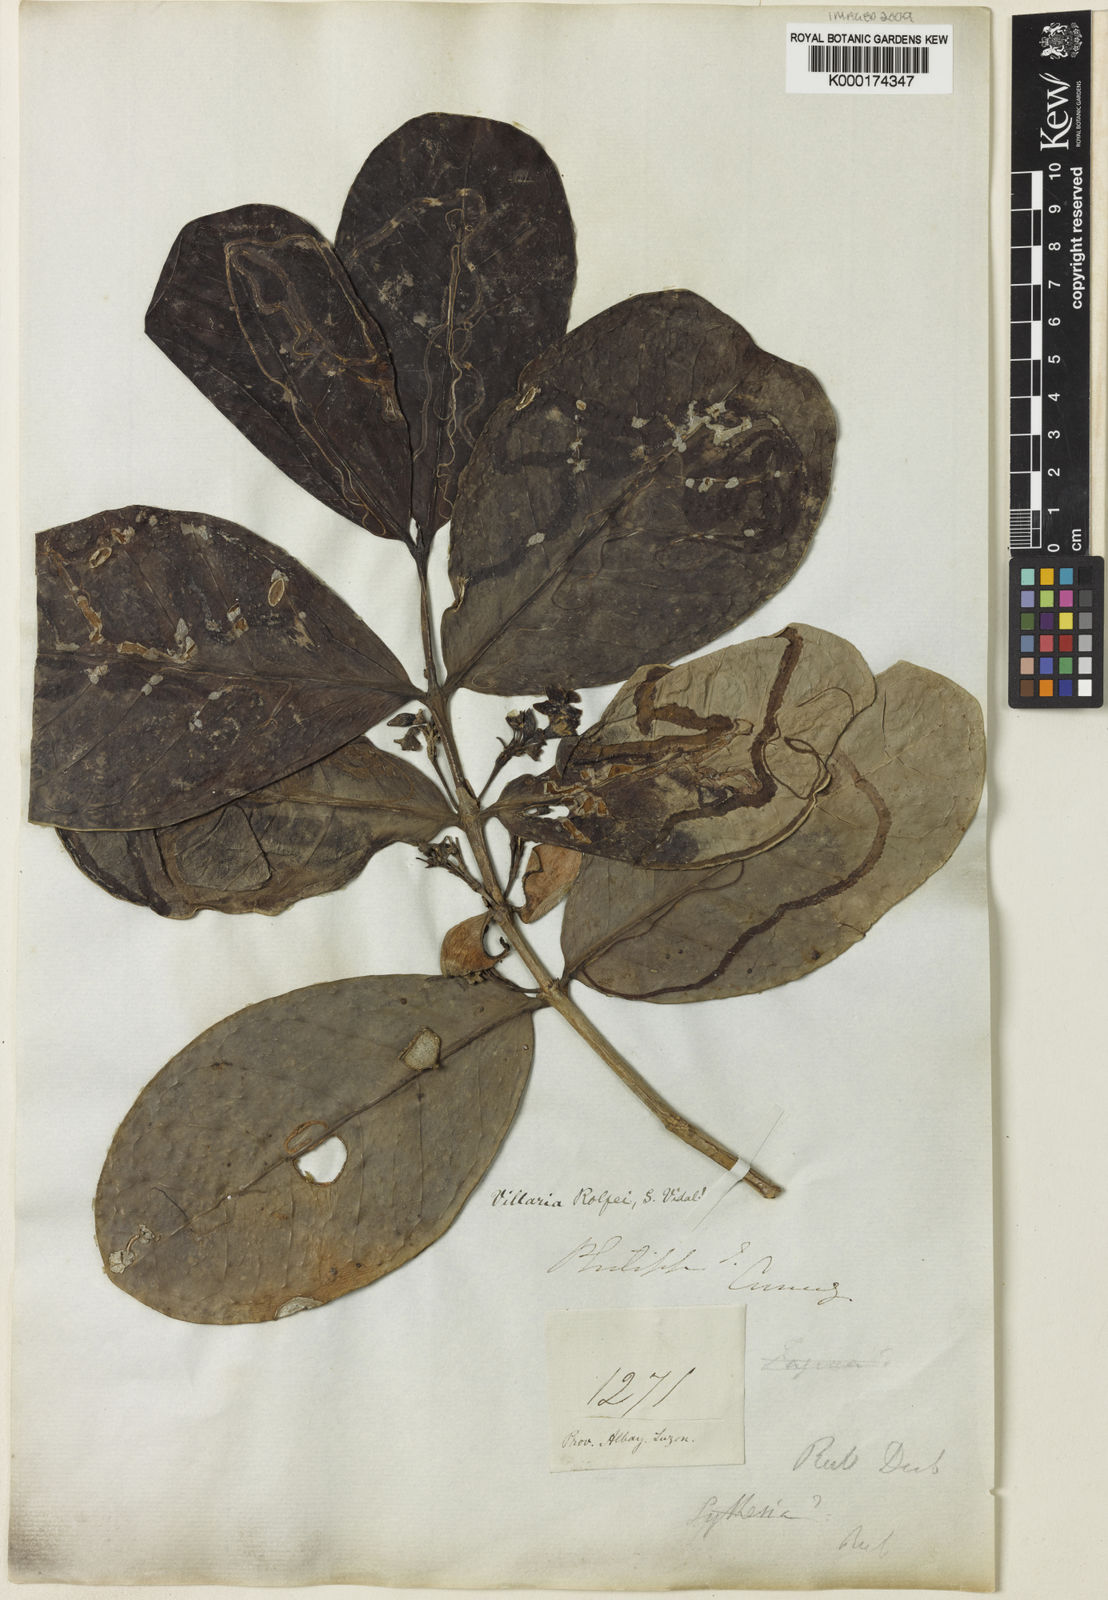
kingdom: Plantae
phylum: Tracheophyta
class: Magnoliopsida
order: Gentianales
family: Rubiaceae
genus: Villaria
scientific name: Villaria odorata
